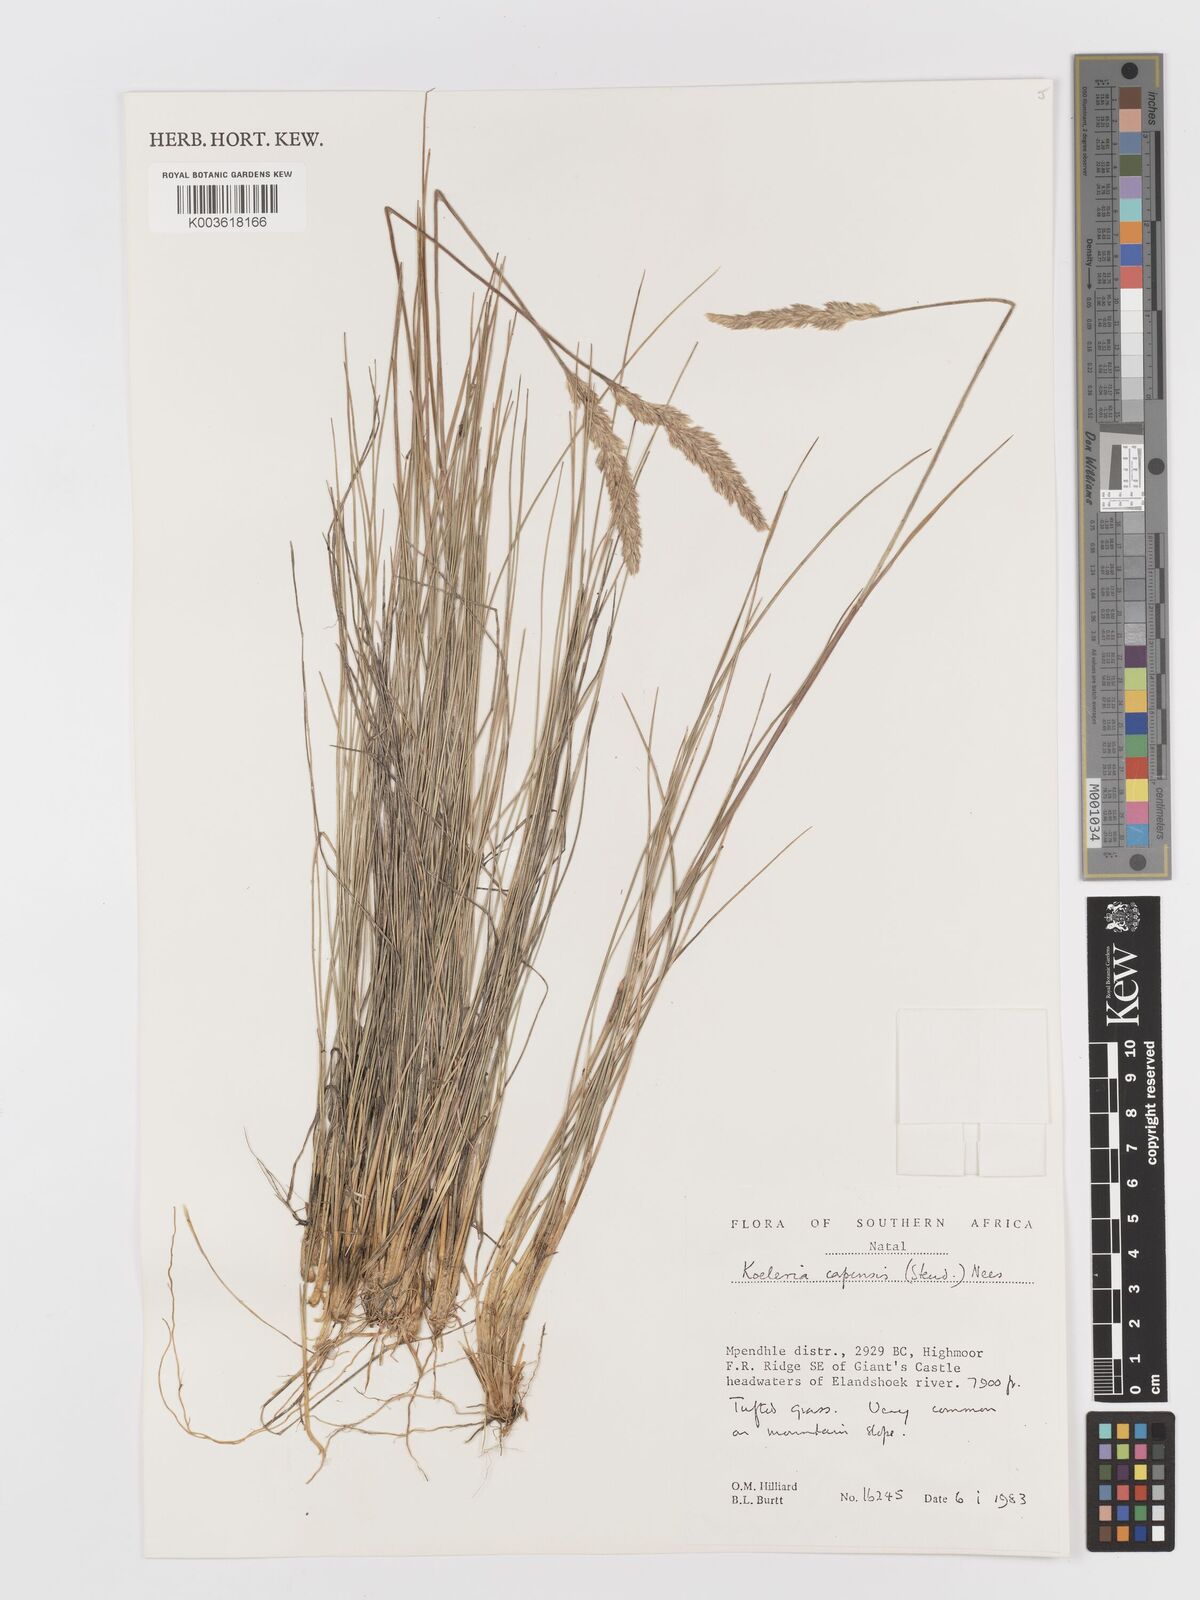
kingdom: Plantae
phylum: Tracheophyta
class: Liliopsida
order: Poales
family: Poaceae
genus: Koeleria
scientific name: Koeleria capensis
